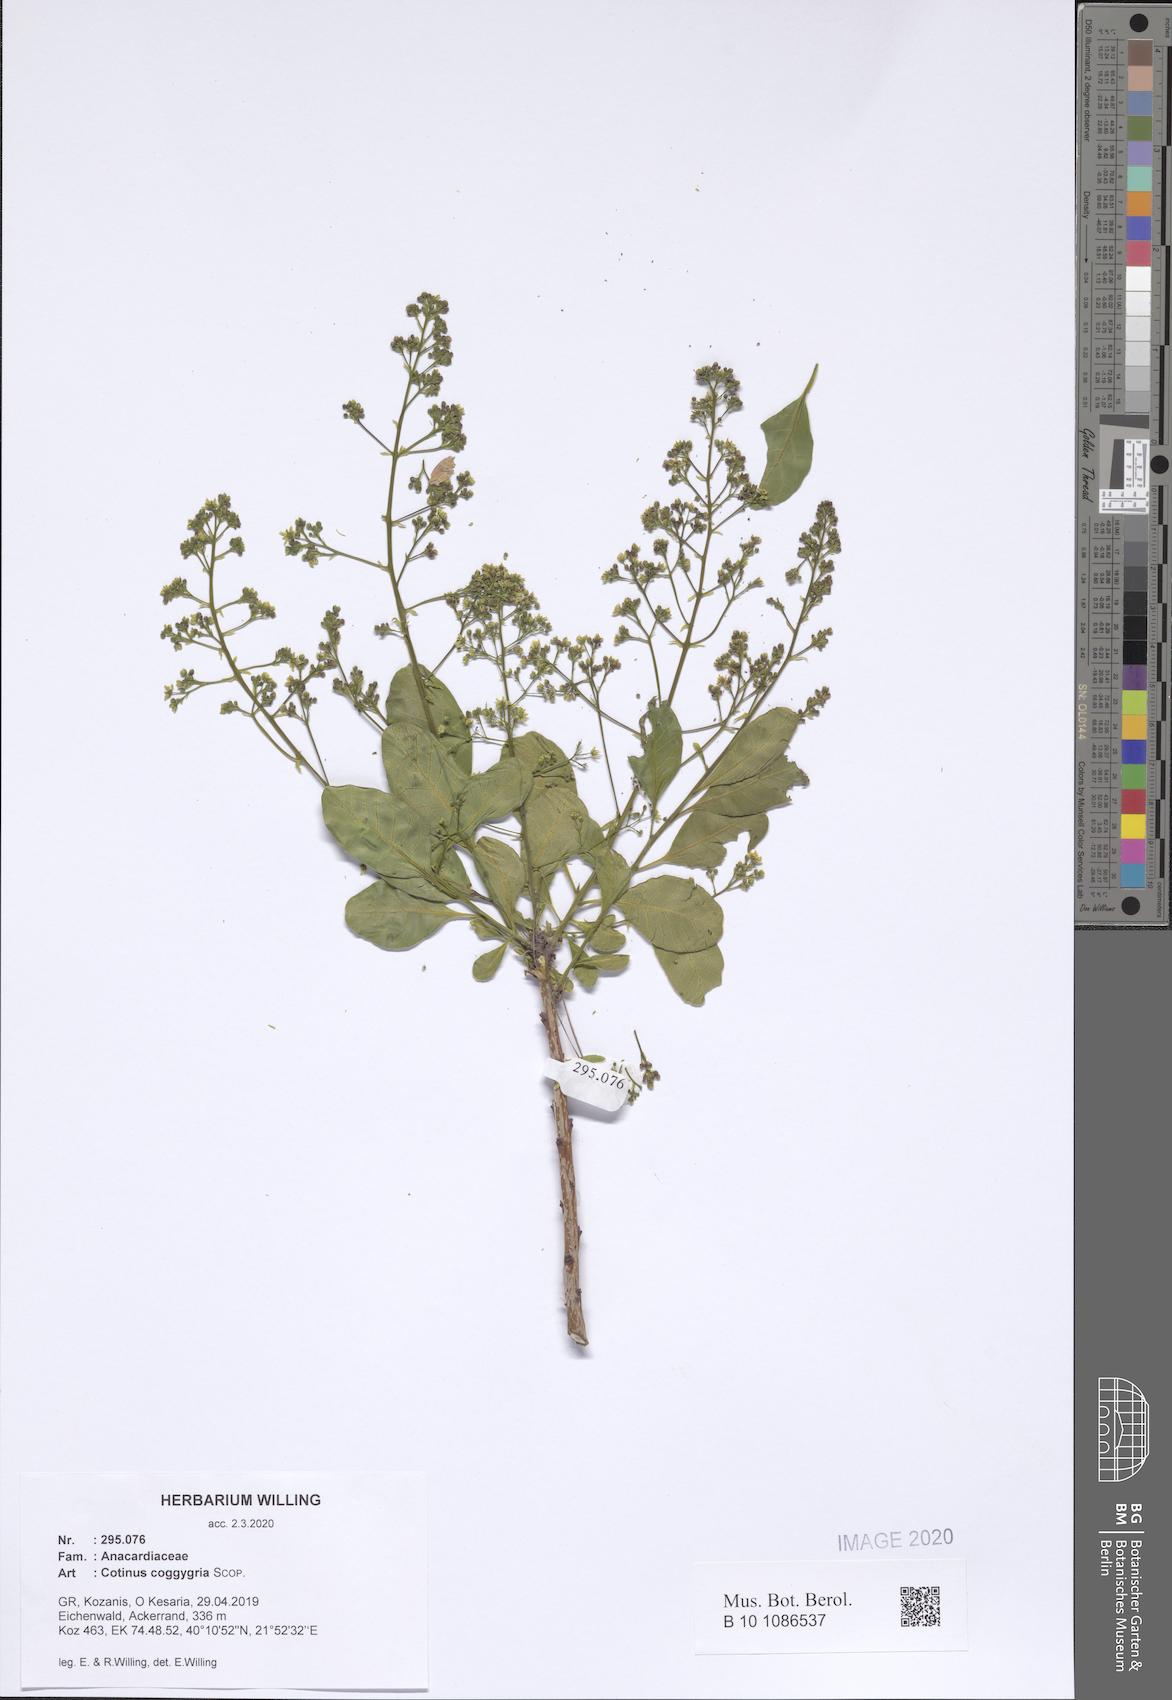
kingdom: Plantae
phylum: Tracheophyta
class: Magnoliopsida
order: Sapindales
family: Anacardiaceae
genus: Cotinus
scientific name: Cotinus coggygria
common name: Smoke-tree
